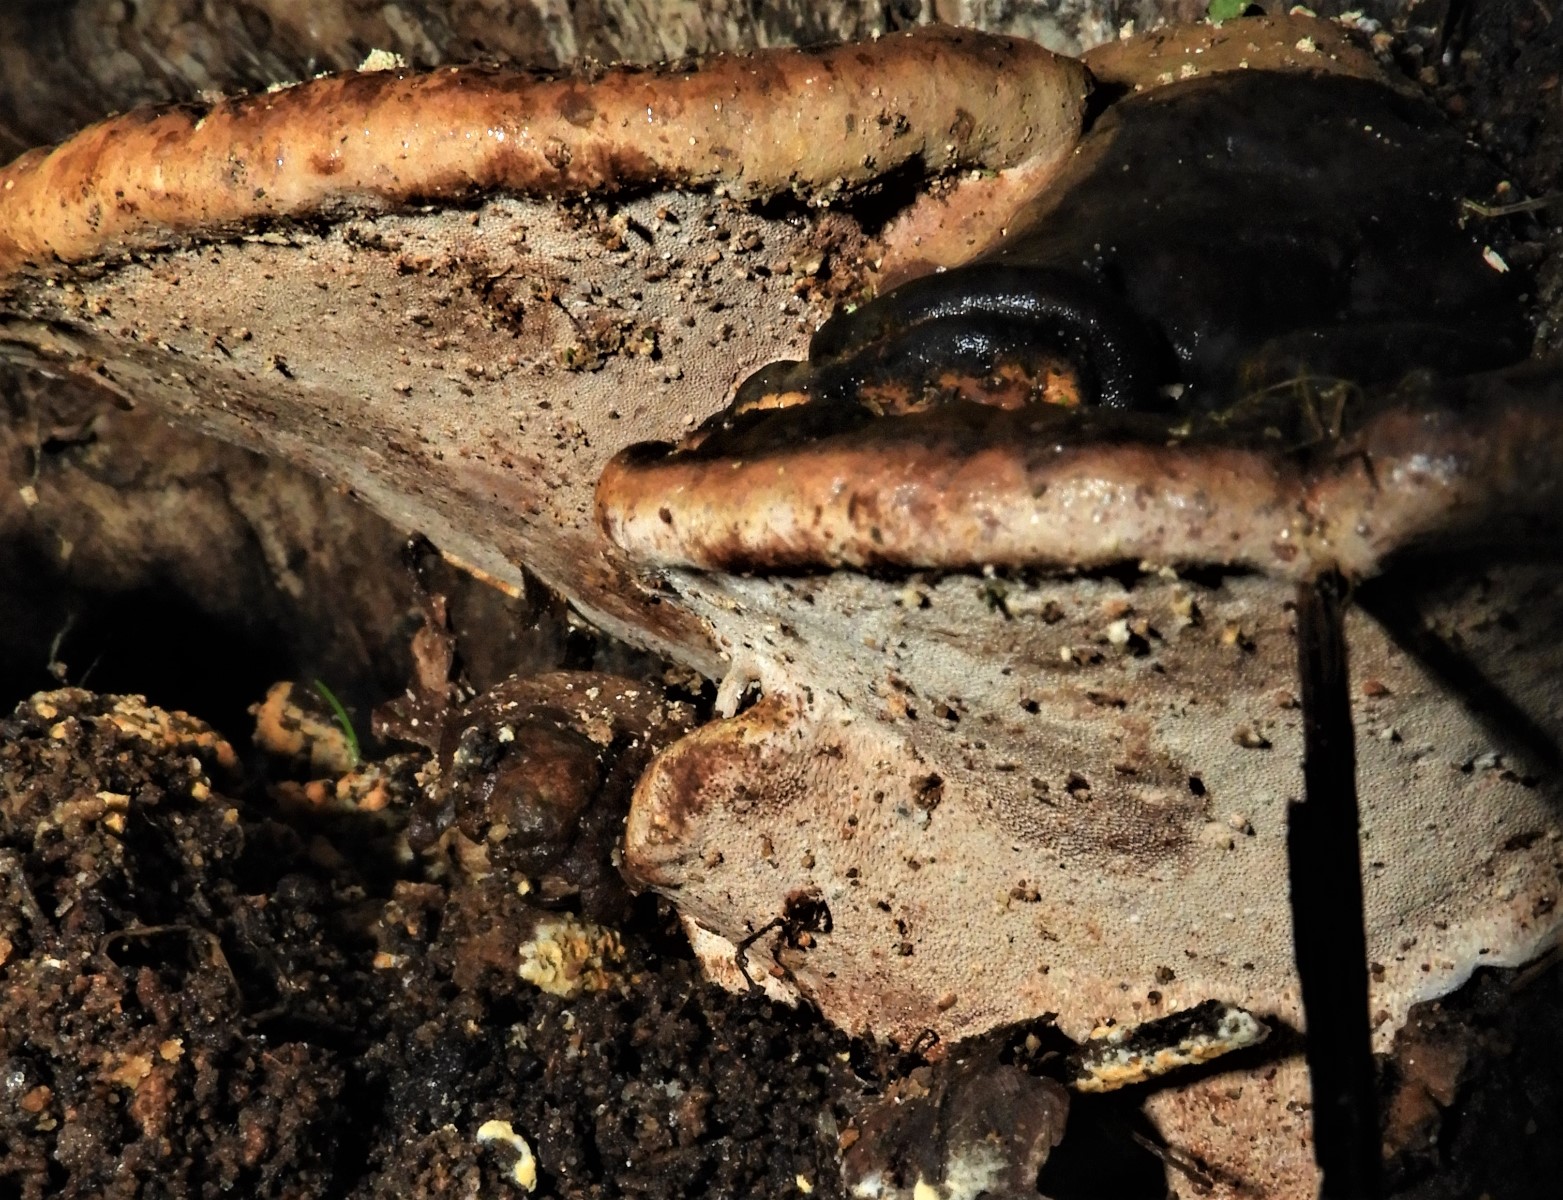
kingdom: Fungi
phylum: Basidiomycota
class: Agaricomycetes
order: Polyporales
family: Polyporaceae
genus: Ganoderma
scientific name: Ganoderma applanatum
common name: flad lakporesvamp
